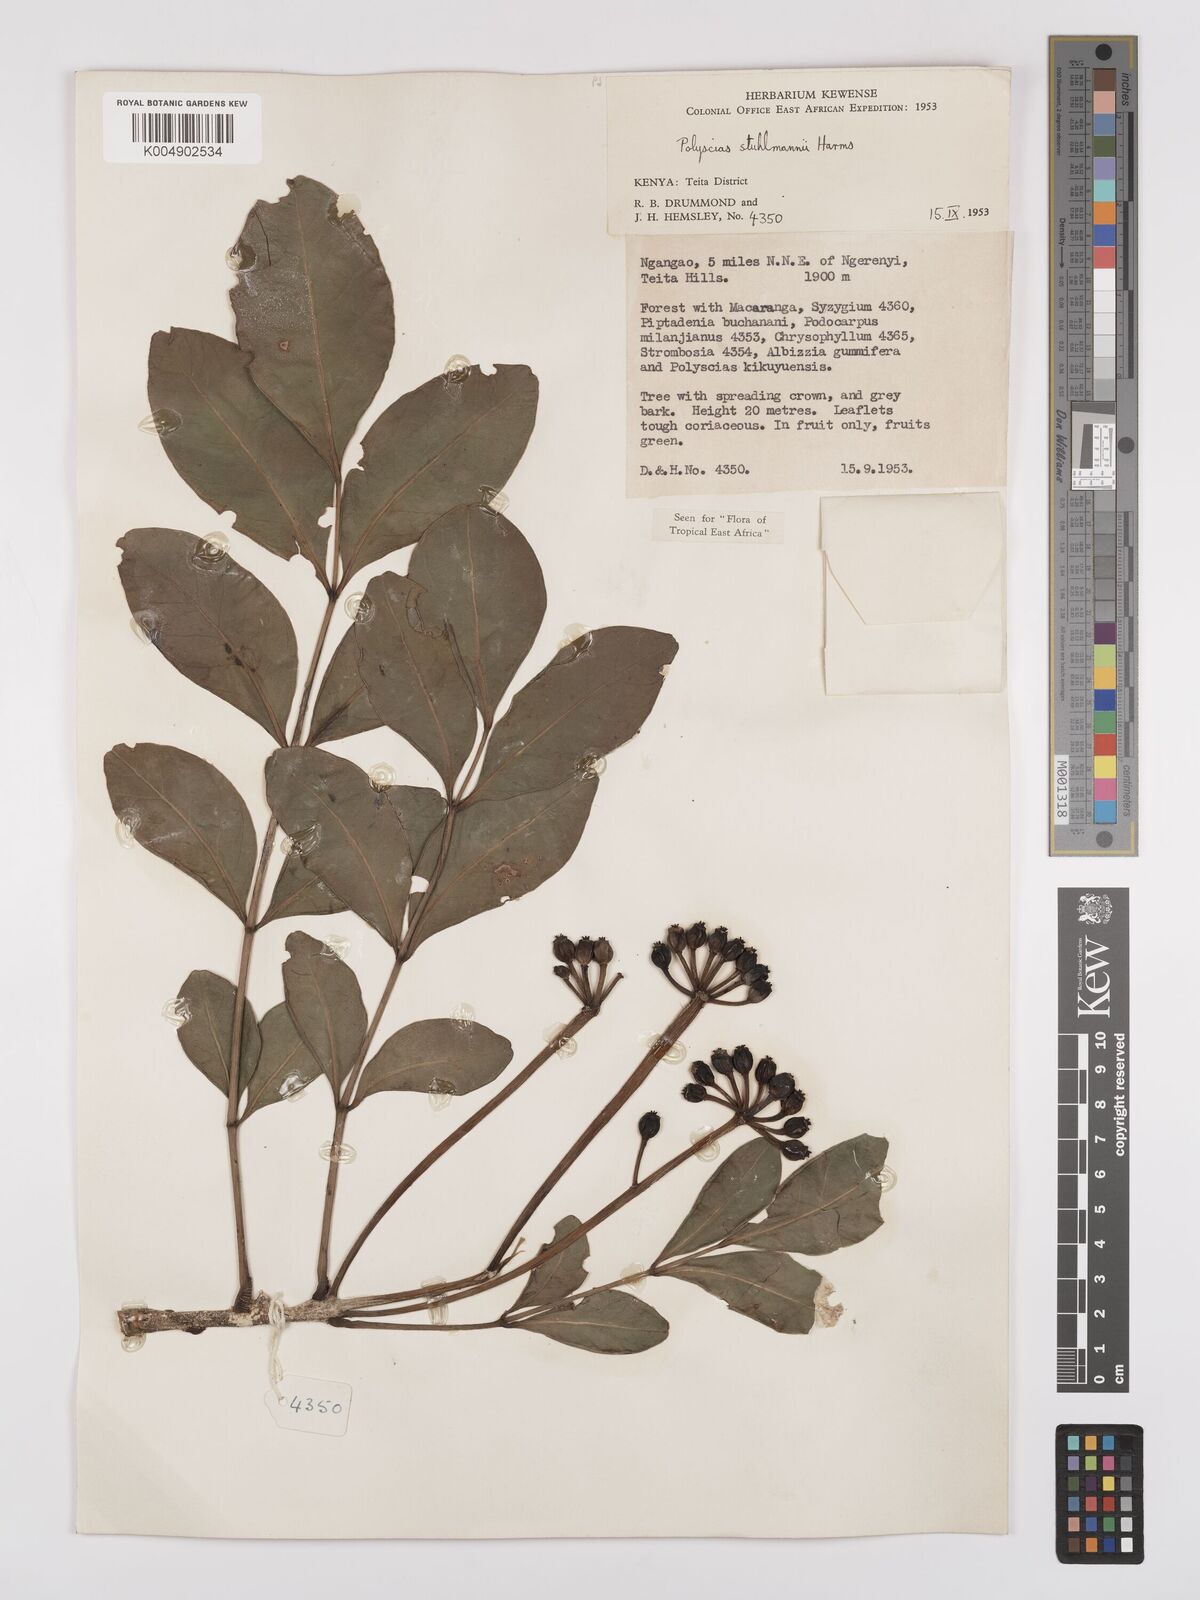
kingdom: Plantae
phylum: Tracheophyta
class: Magnoliopsida
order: Apiales
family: Araliaceae
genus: Polyscias
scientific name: Polyscias stuhlmannii
